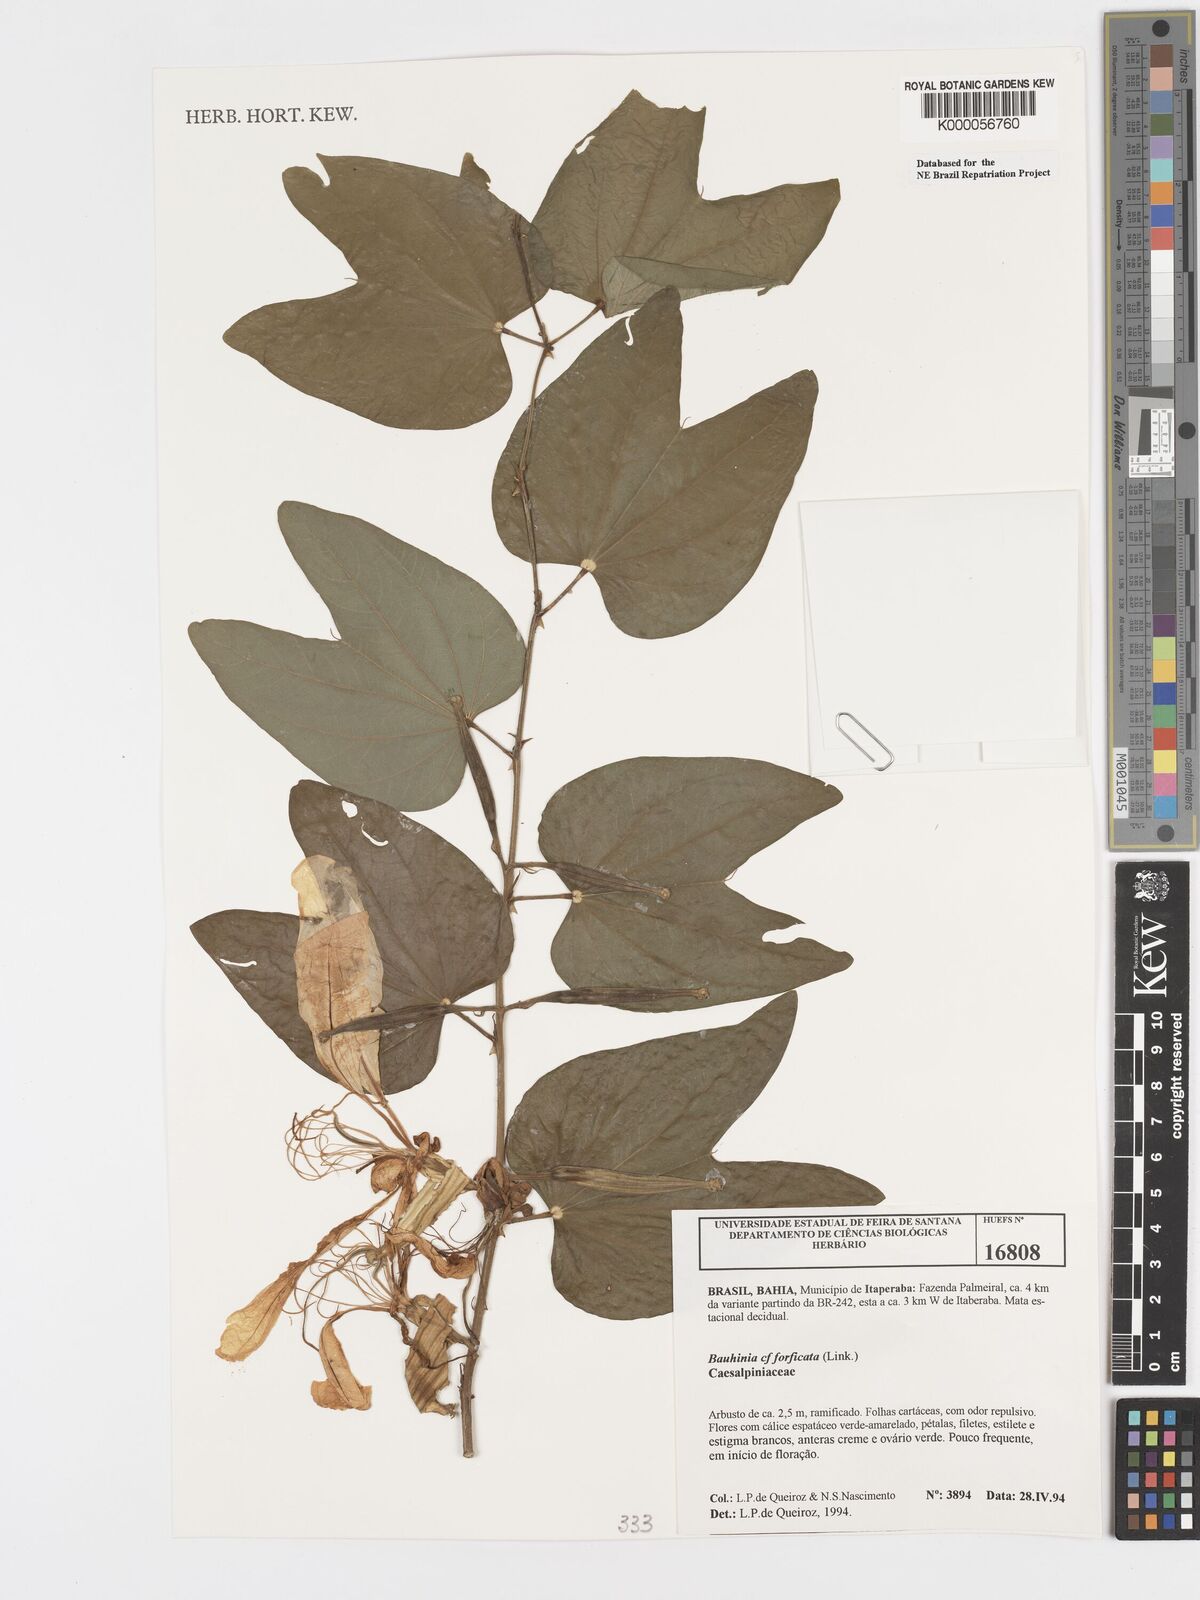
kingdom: Plantae
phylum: Tracheophyta
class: Magnoliopsida
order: Fabales
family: Fabaceae
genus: Bauhinia
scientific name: Bauhinia
